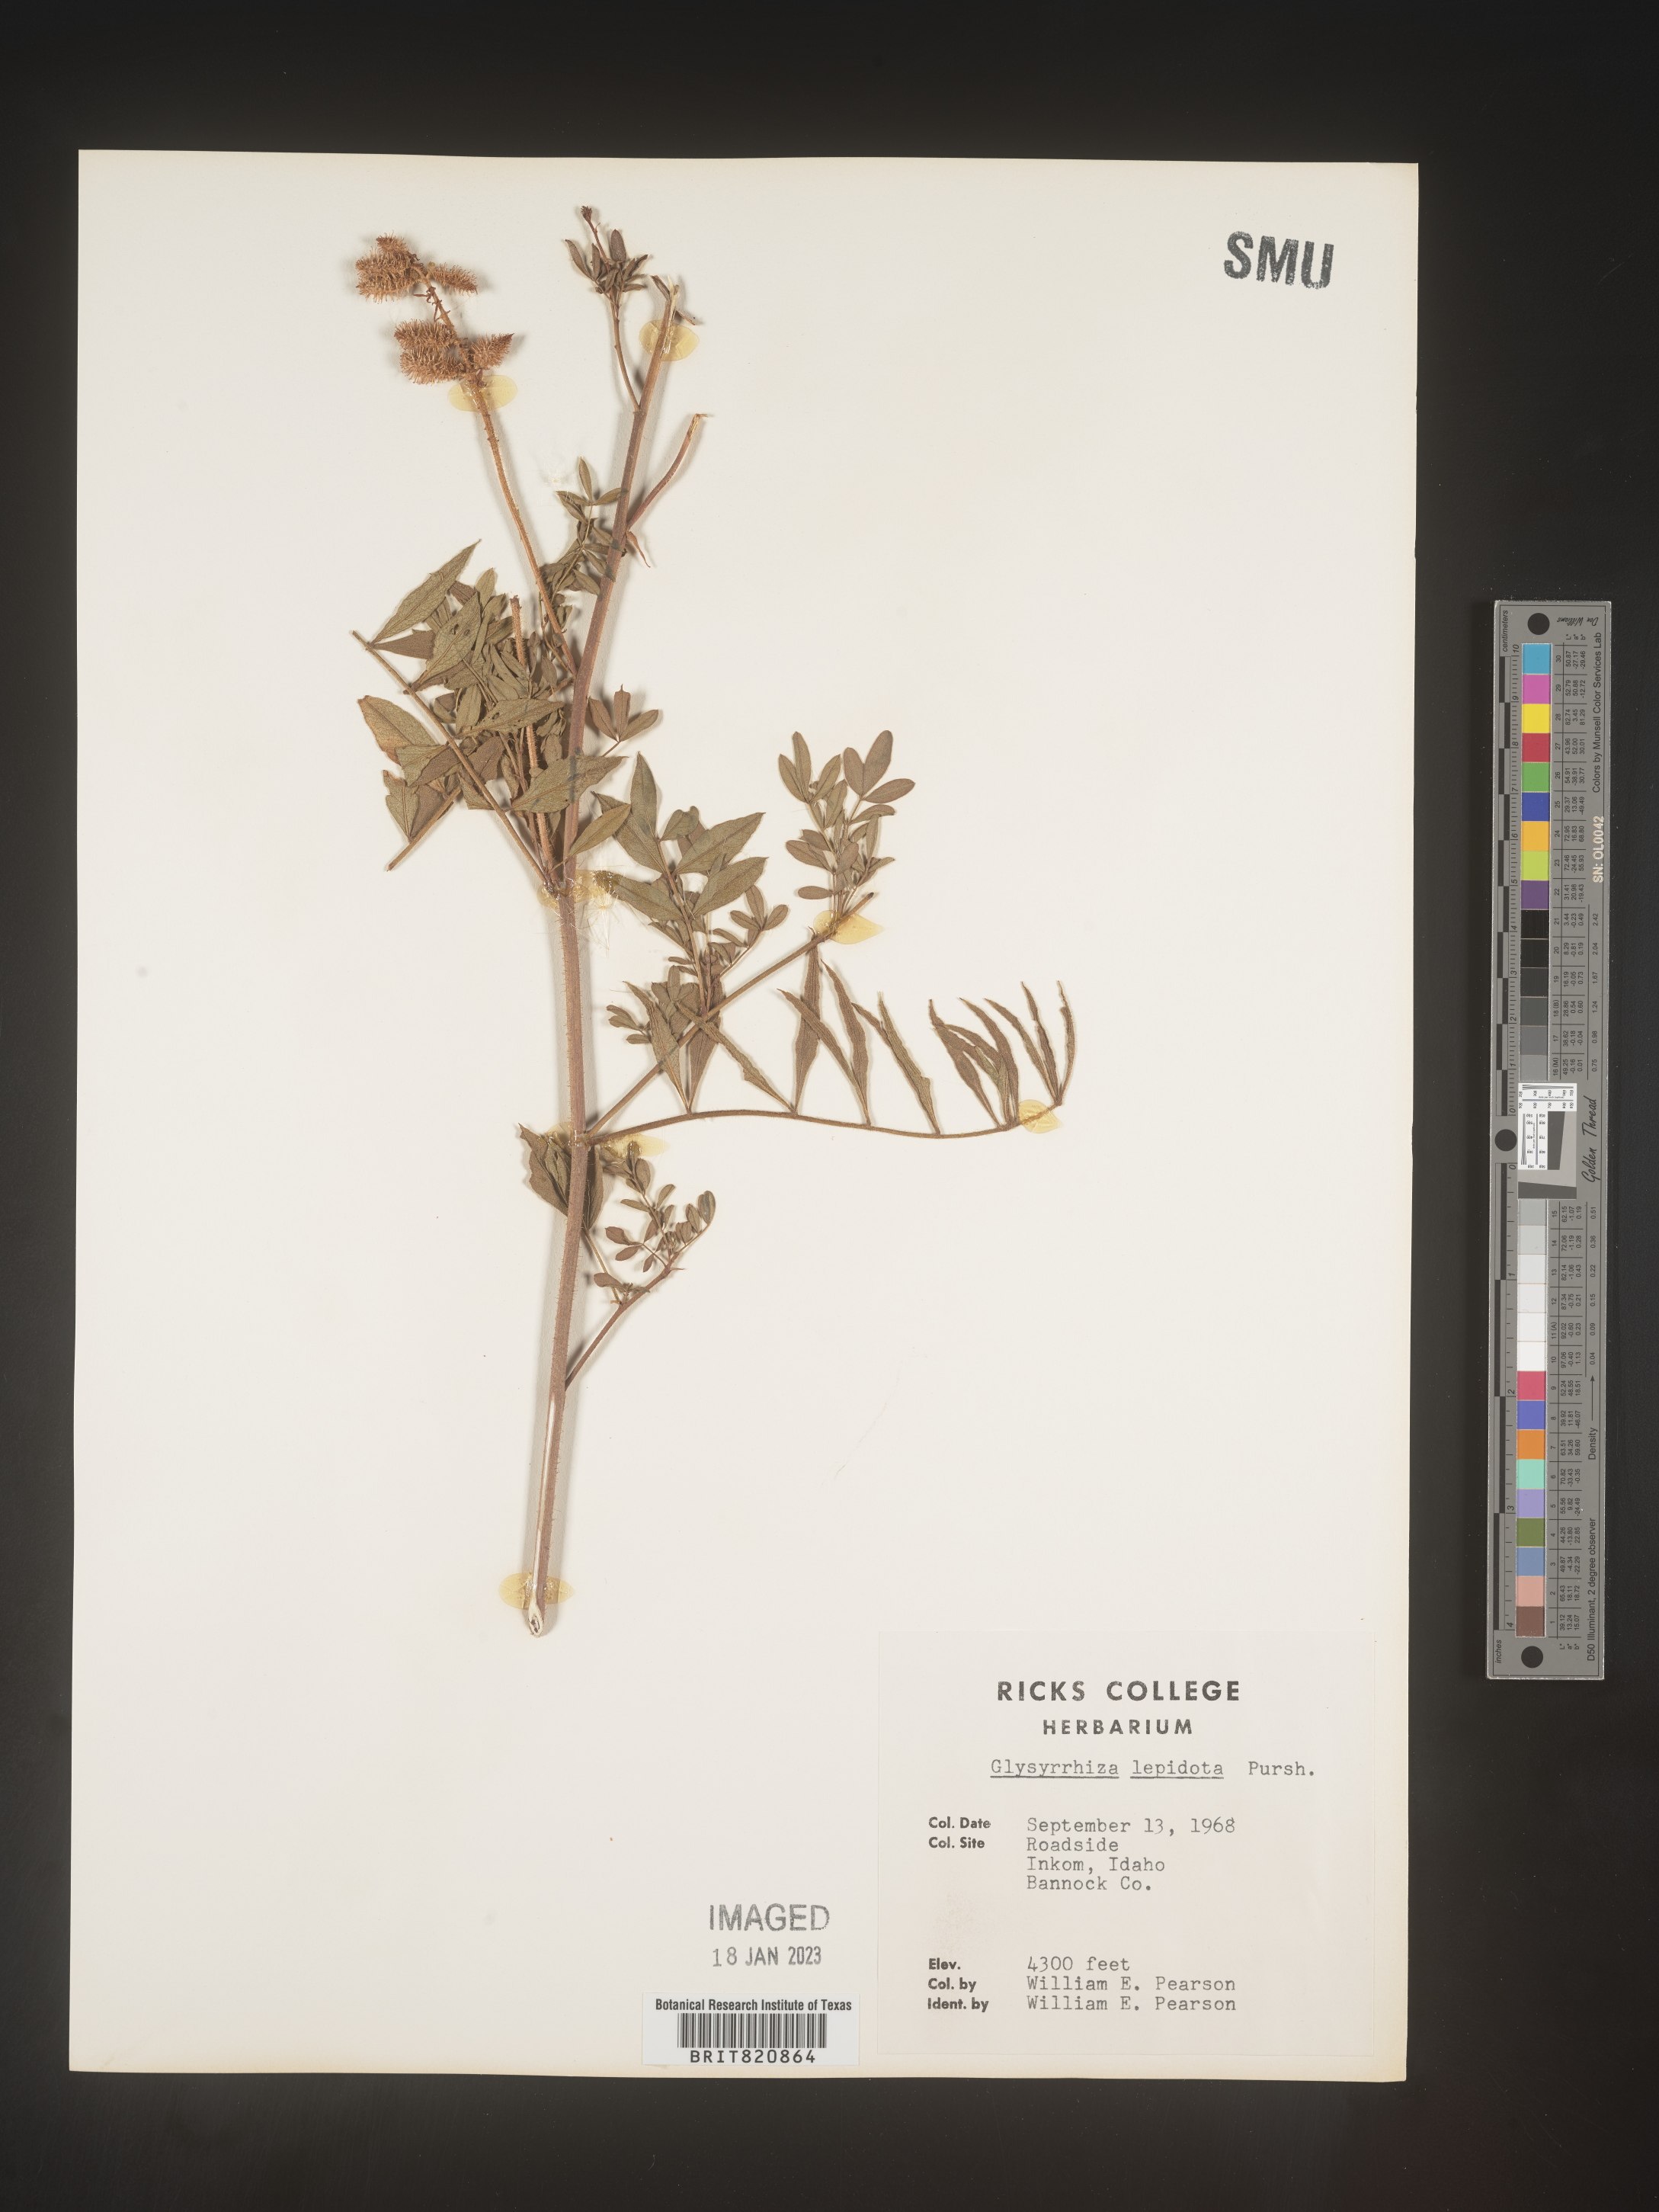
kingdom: Plantae
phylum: Tracheophyta
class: Magnoliopsida
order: Fabales
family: Fabaceae
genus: Glycyrrhiza
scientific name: Glycyrrhiza lepidota
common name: American liquorice
